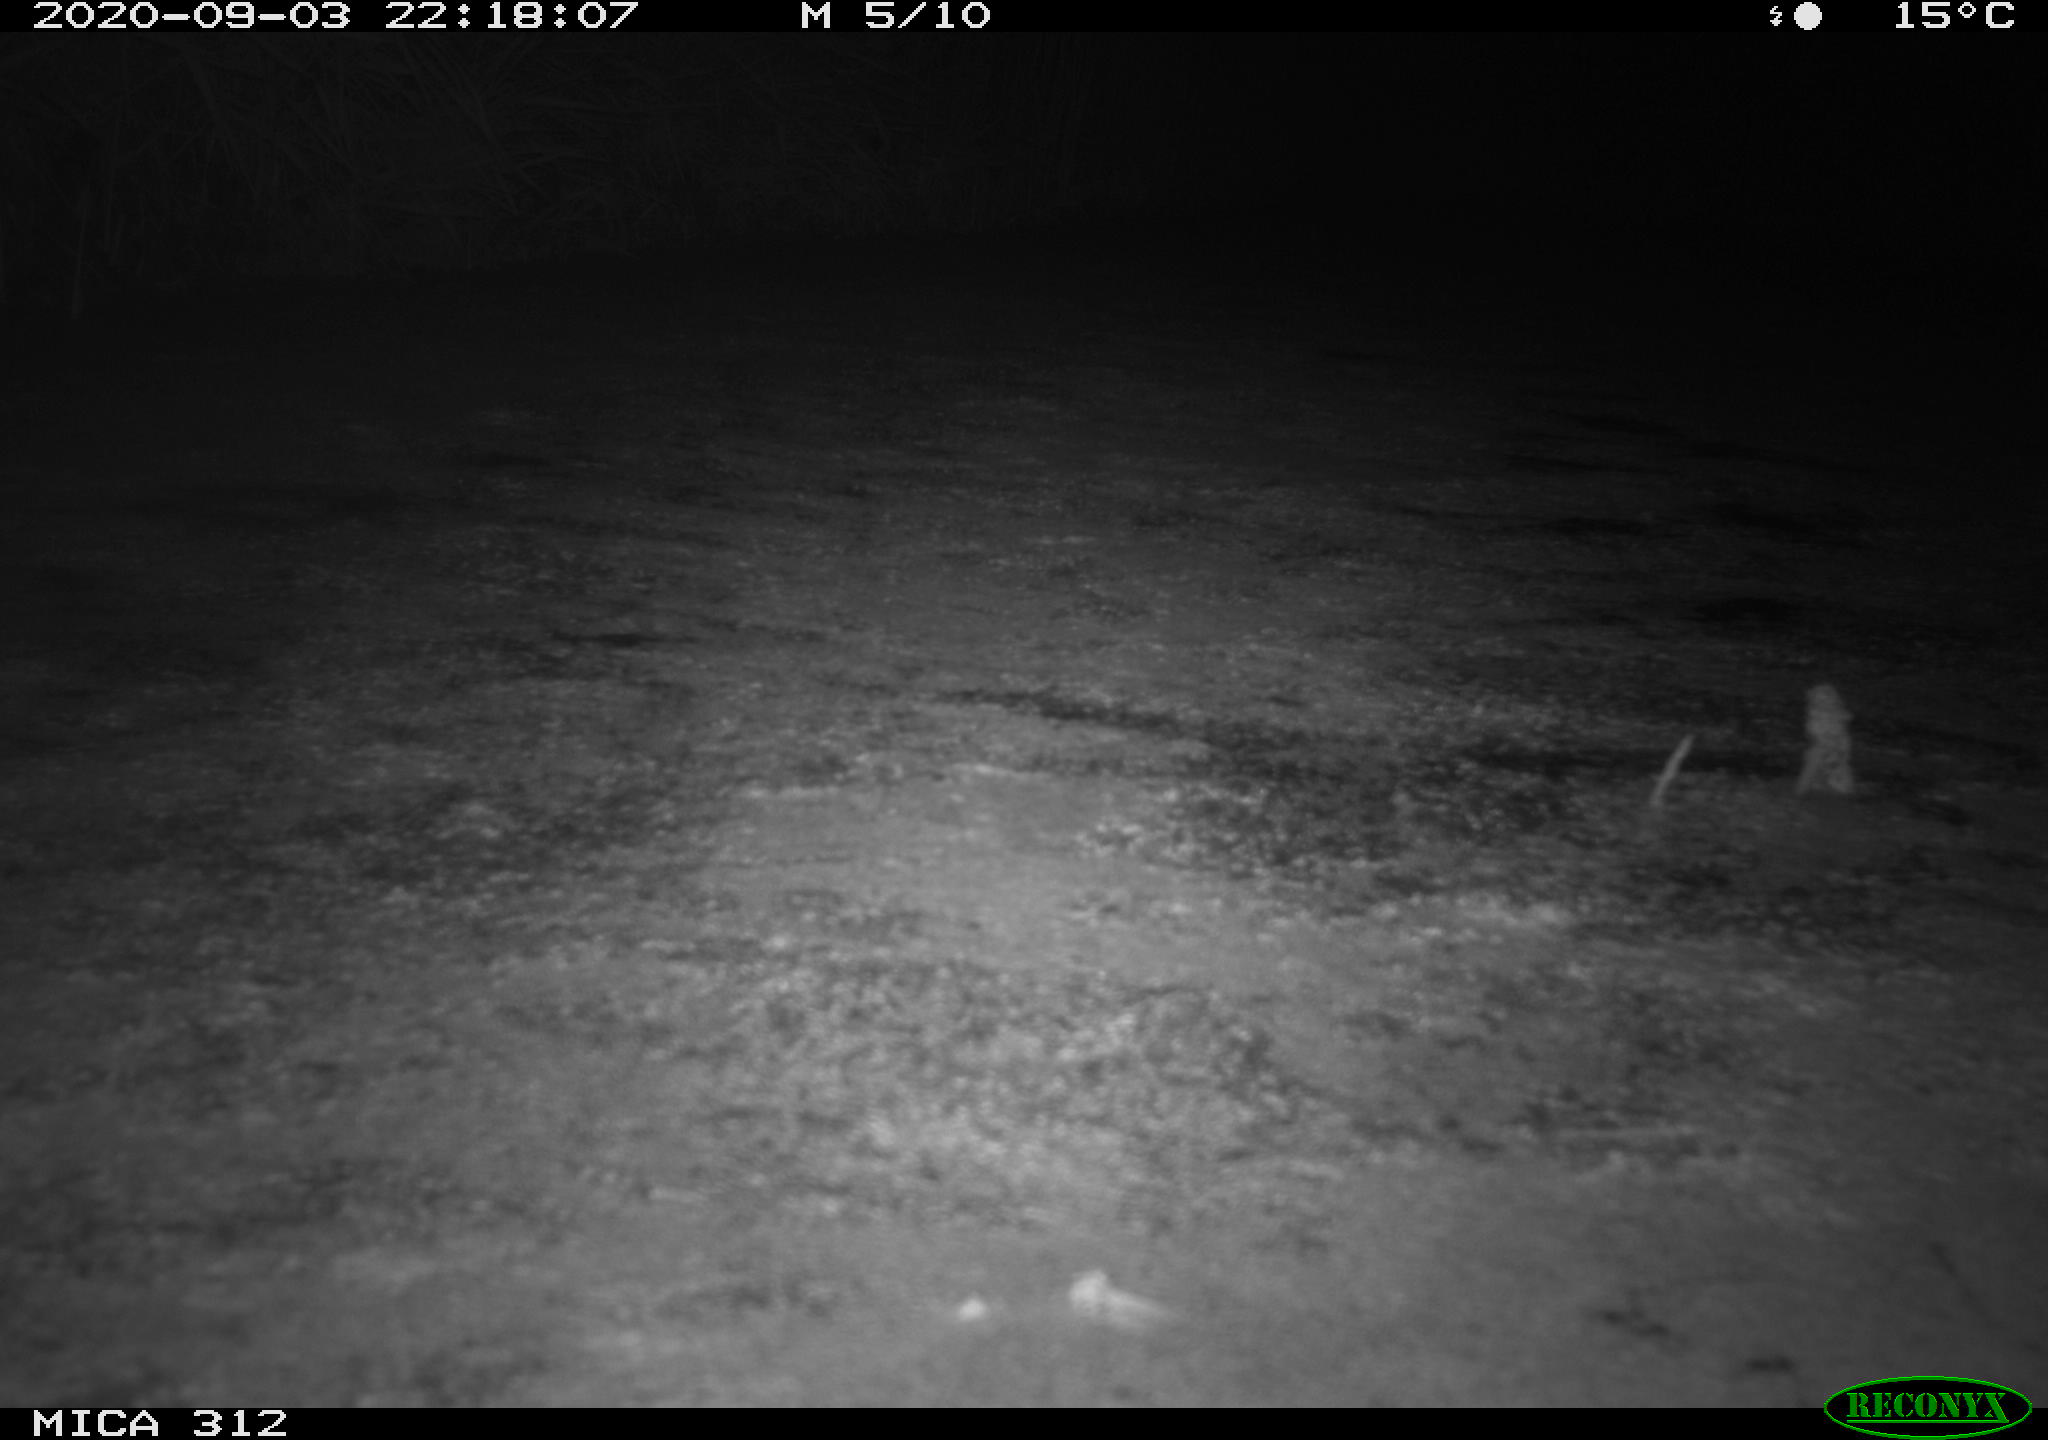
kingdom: Animalia
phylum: Chordata
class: Mammalia
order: Rodentia
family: Muridae
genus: Rattus
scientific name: Rattus norvegicus
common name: Brown rat
